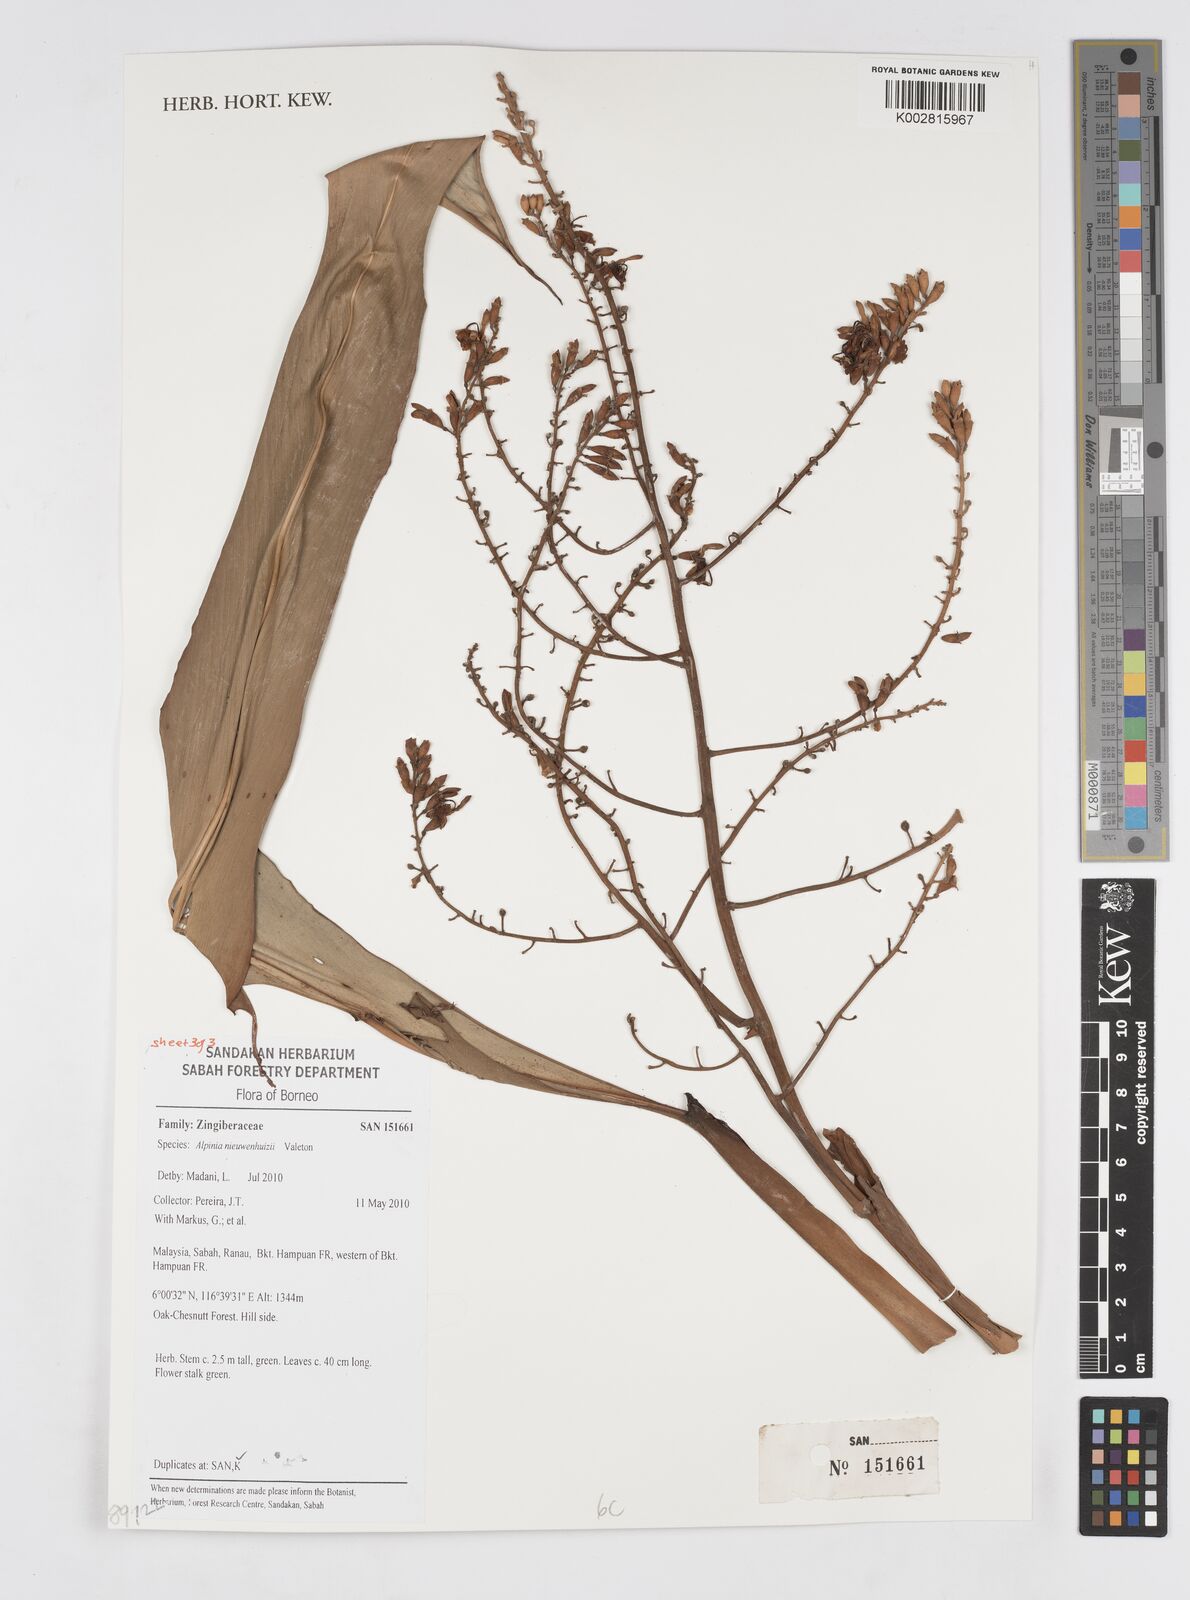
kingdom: Plantae
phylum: Tracheophyta
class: Liliopsida
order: Zingiberales
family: Zingiberaceae
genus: Alpinia
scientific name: Alpinia nieuwenhuizii
